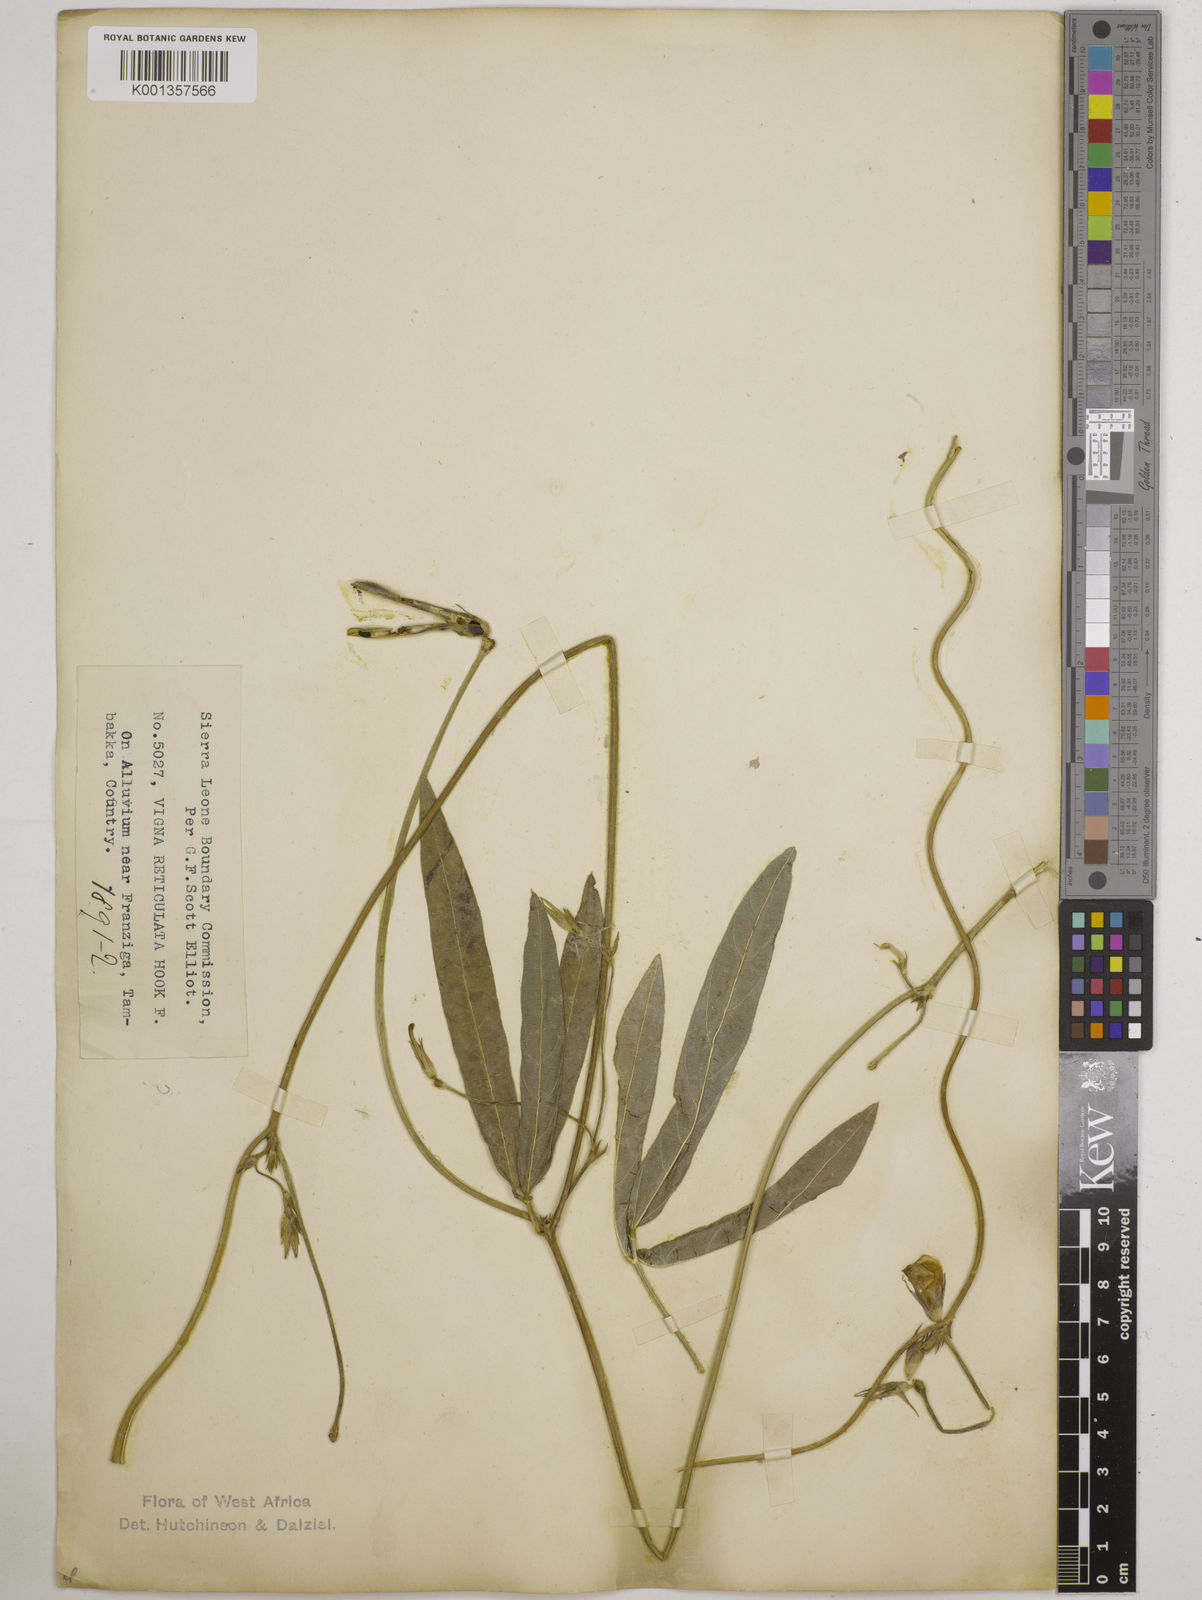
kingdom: Plantae
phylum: Tracheophyta
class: Magnoliopsida
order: Fabales
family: Fabaceae
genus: Vigna
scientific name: Vigna reticulata
